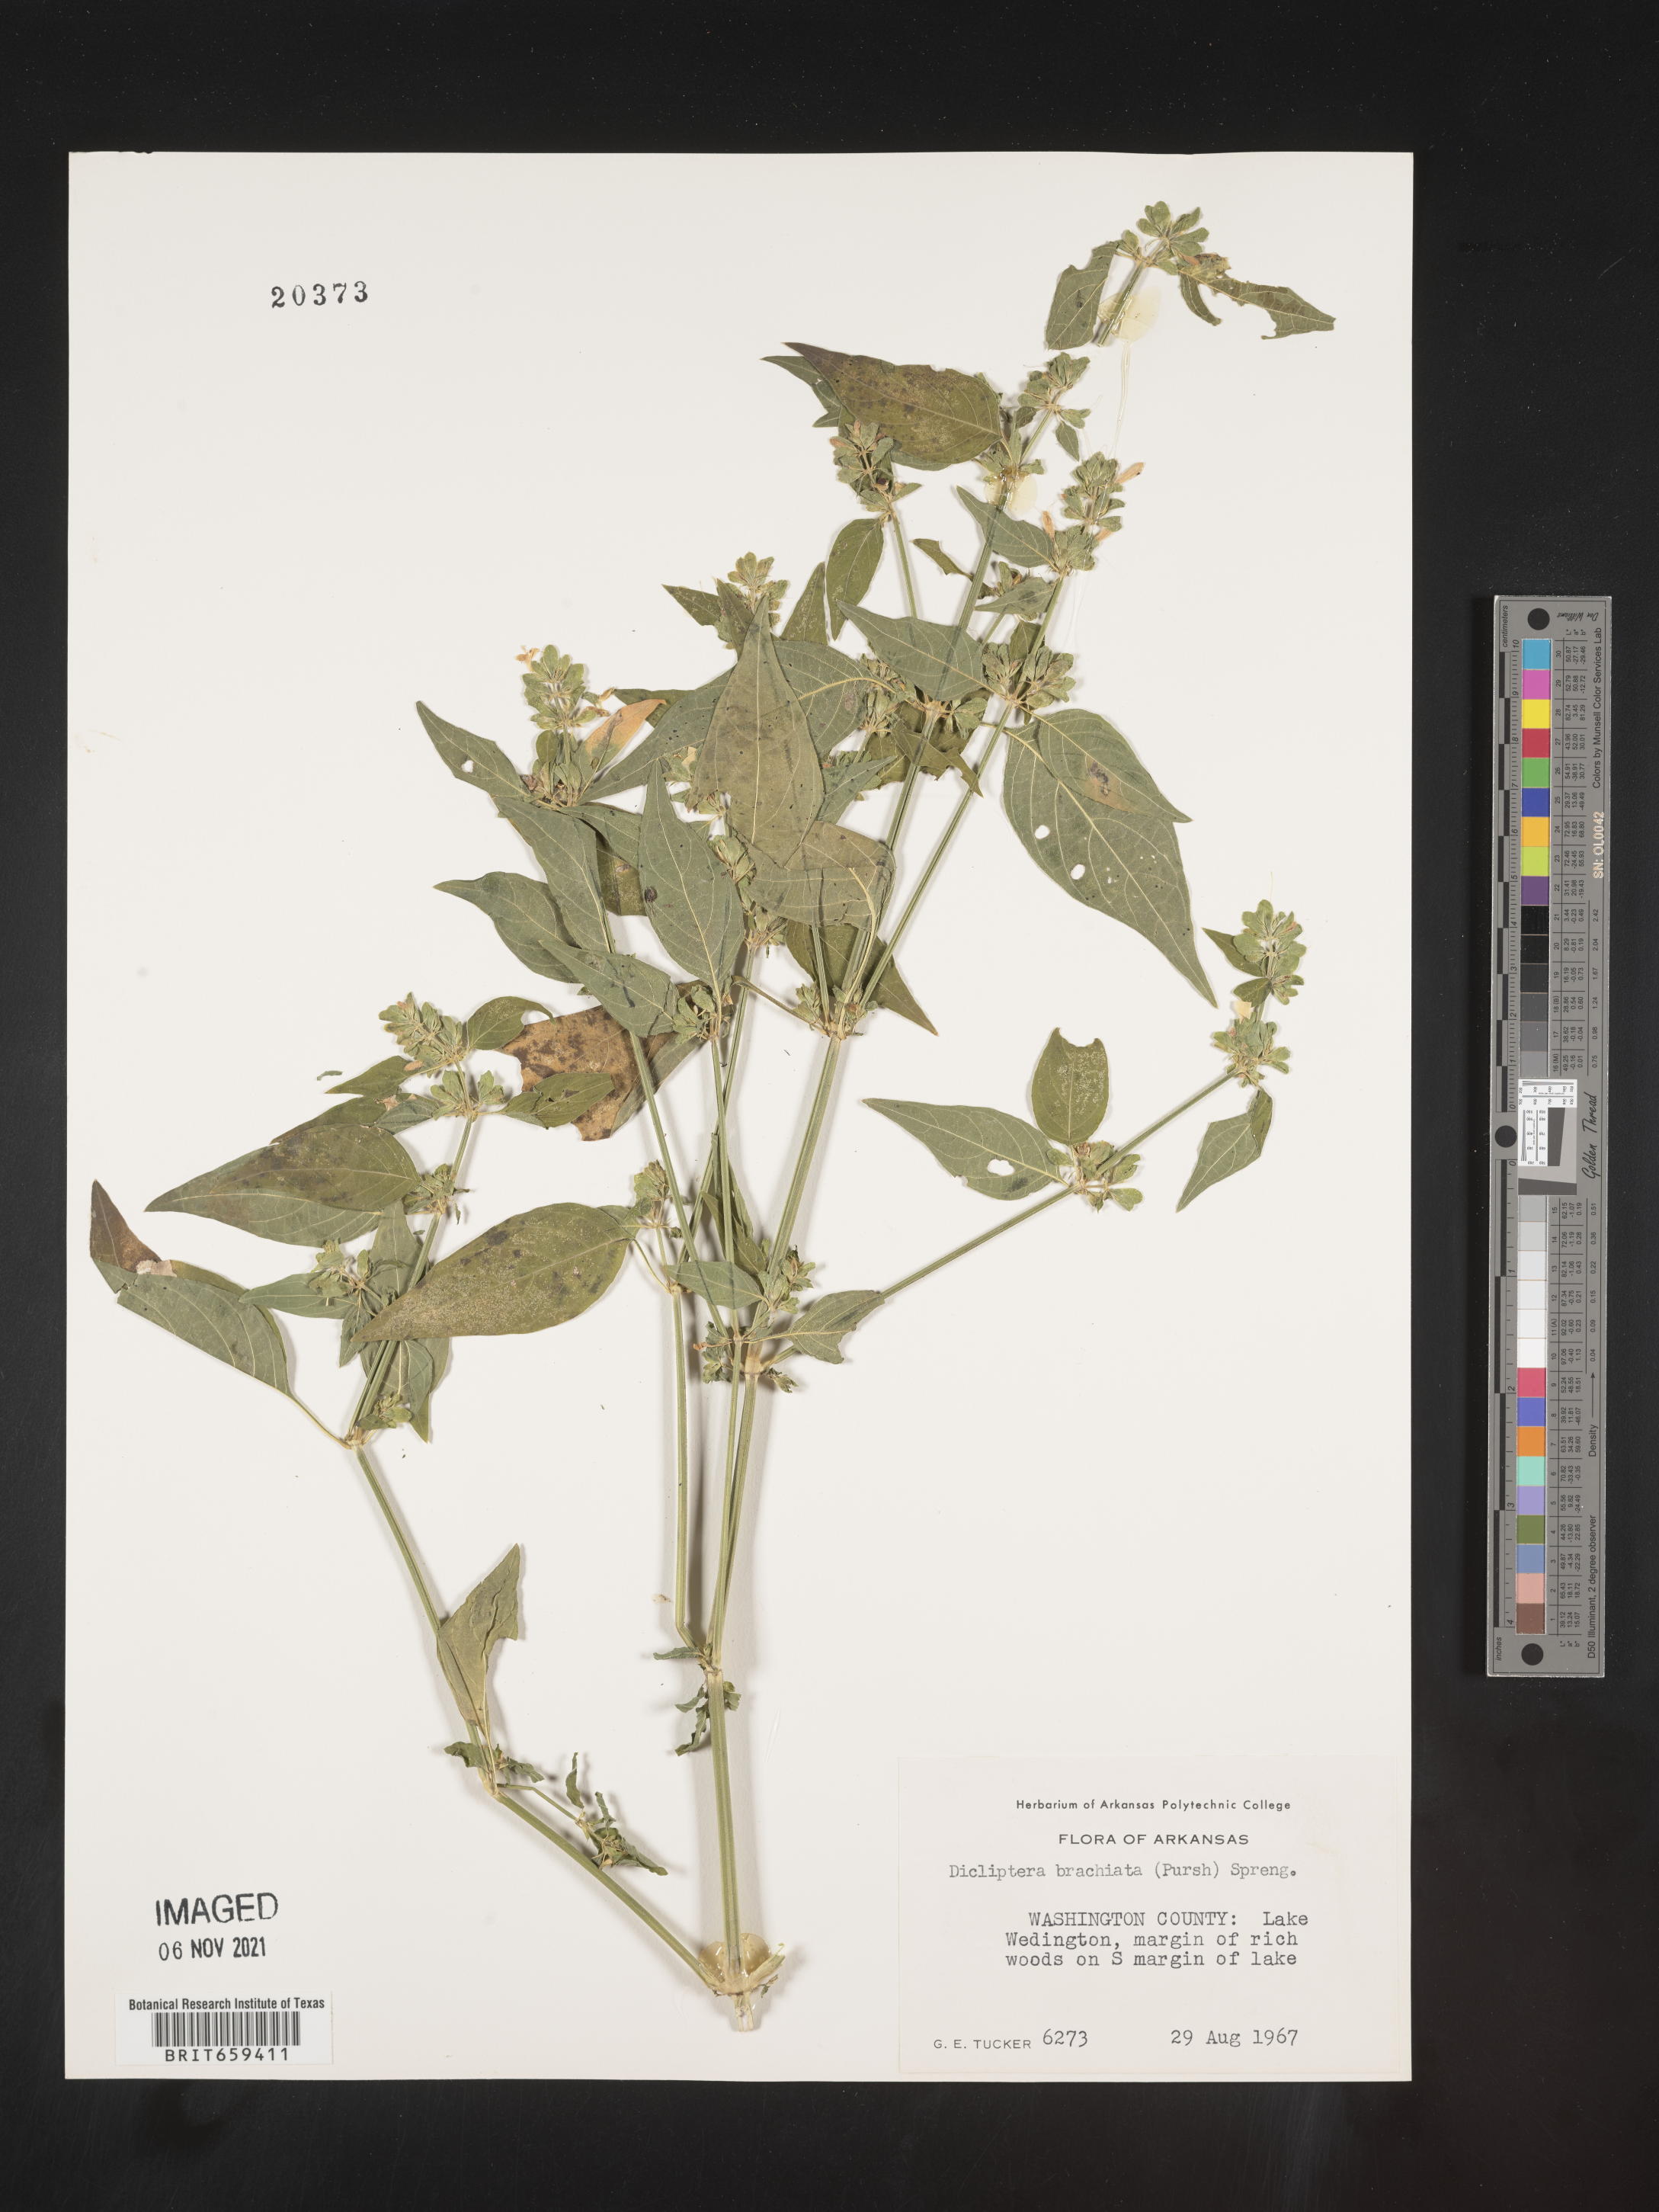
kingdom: Plantae
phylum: Tracheophyta
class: Magnoliopsida
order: Lamiales
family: Acanthaceae
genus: Dicliptera
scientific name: Dicliptera brachiata
